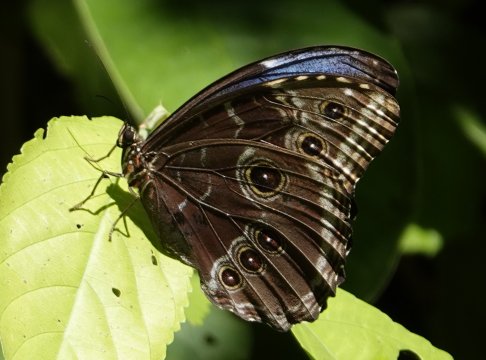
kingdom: Animalia
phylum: Arthropoda
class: Insecta
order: Lepidoptera
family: Nymphalidae
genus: Morpho
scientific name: Morpho helenor
